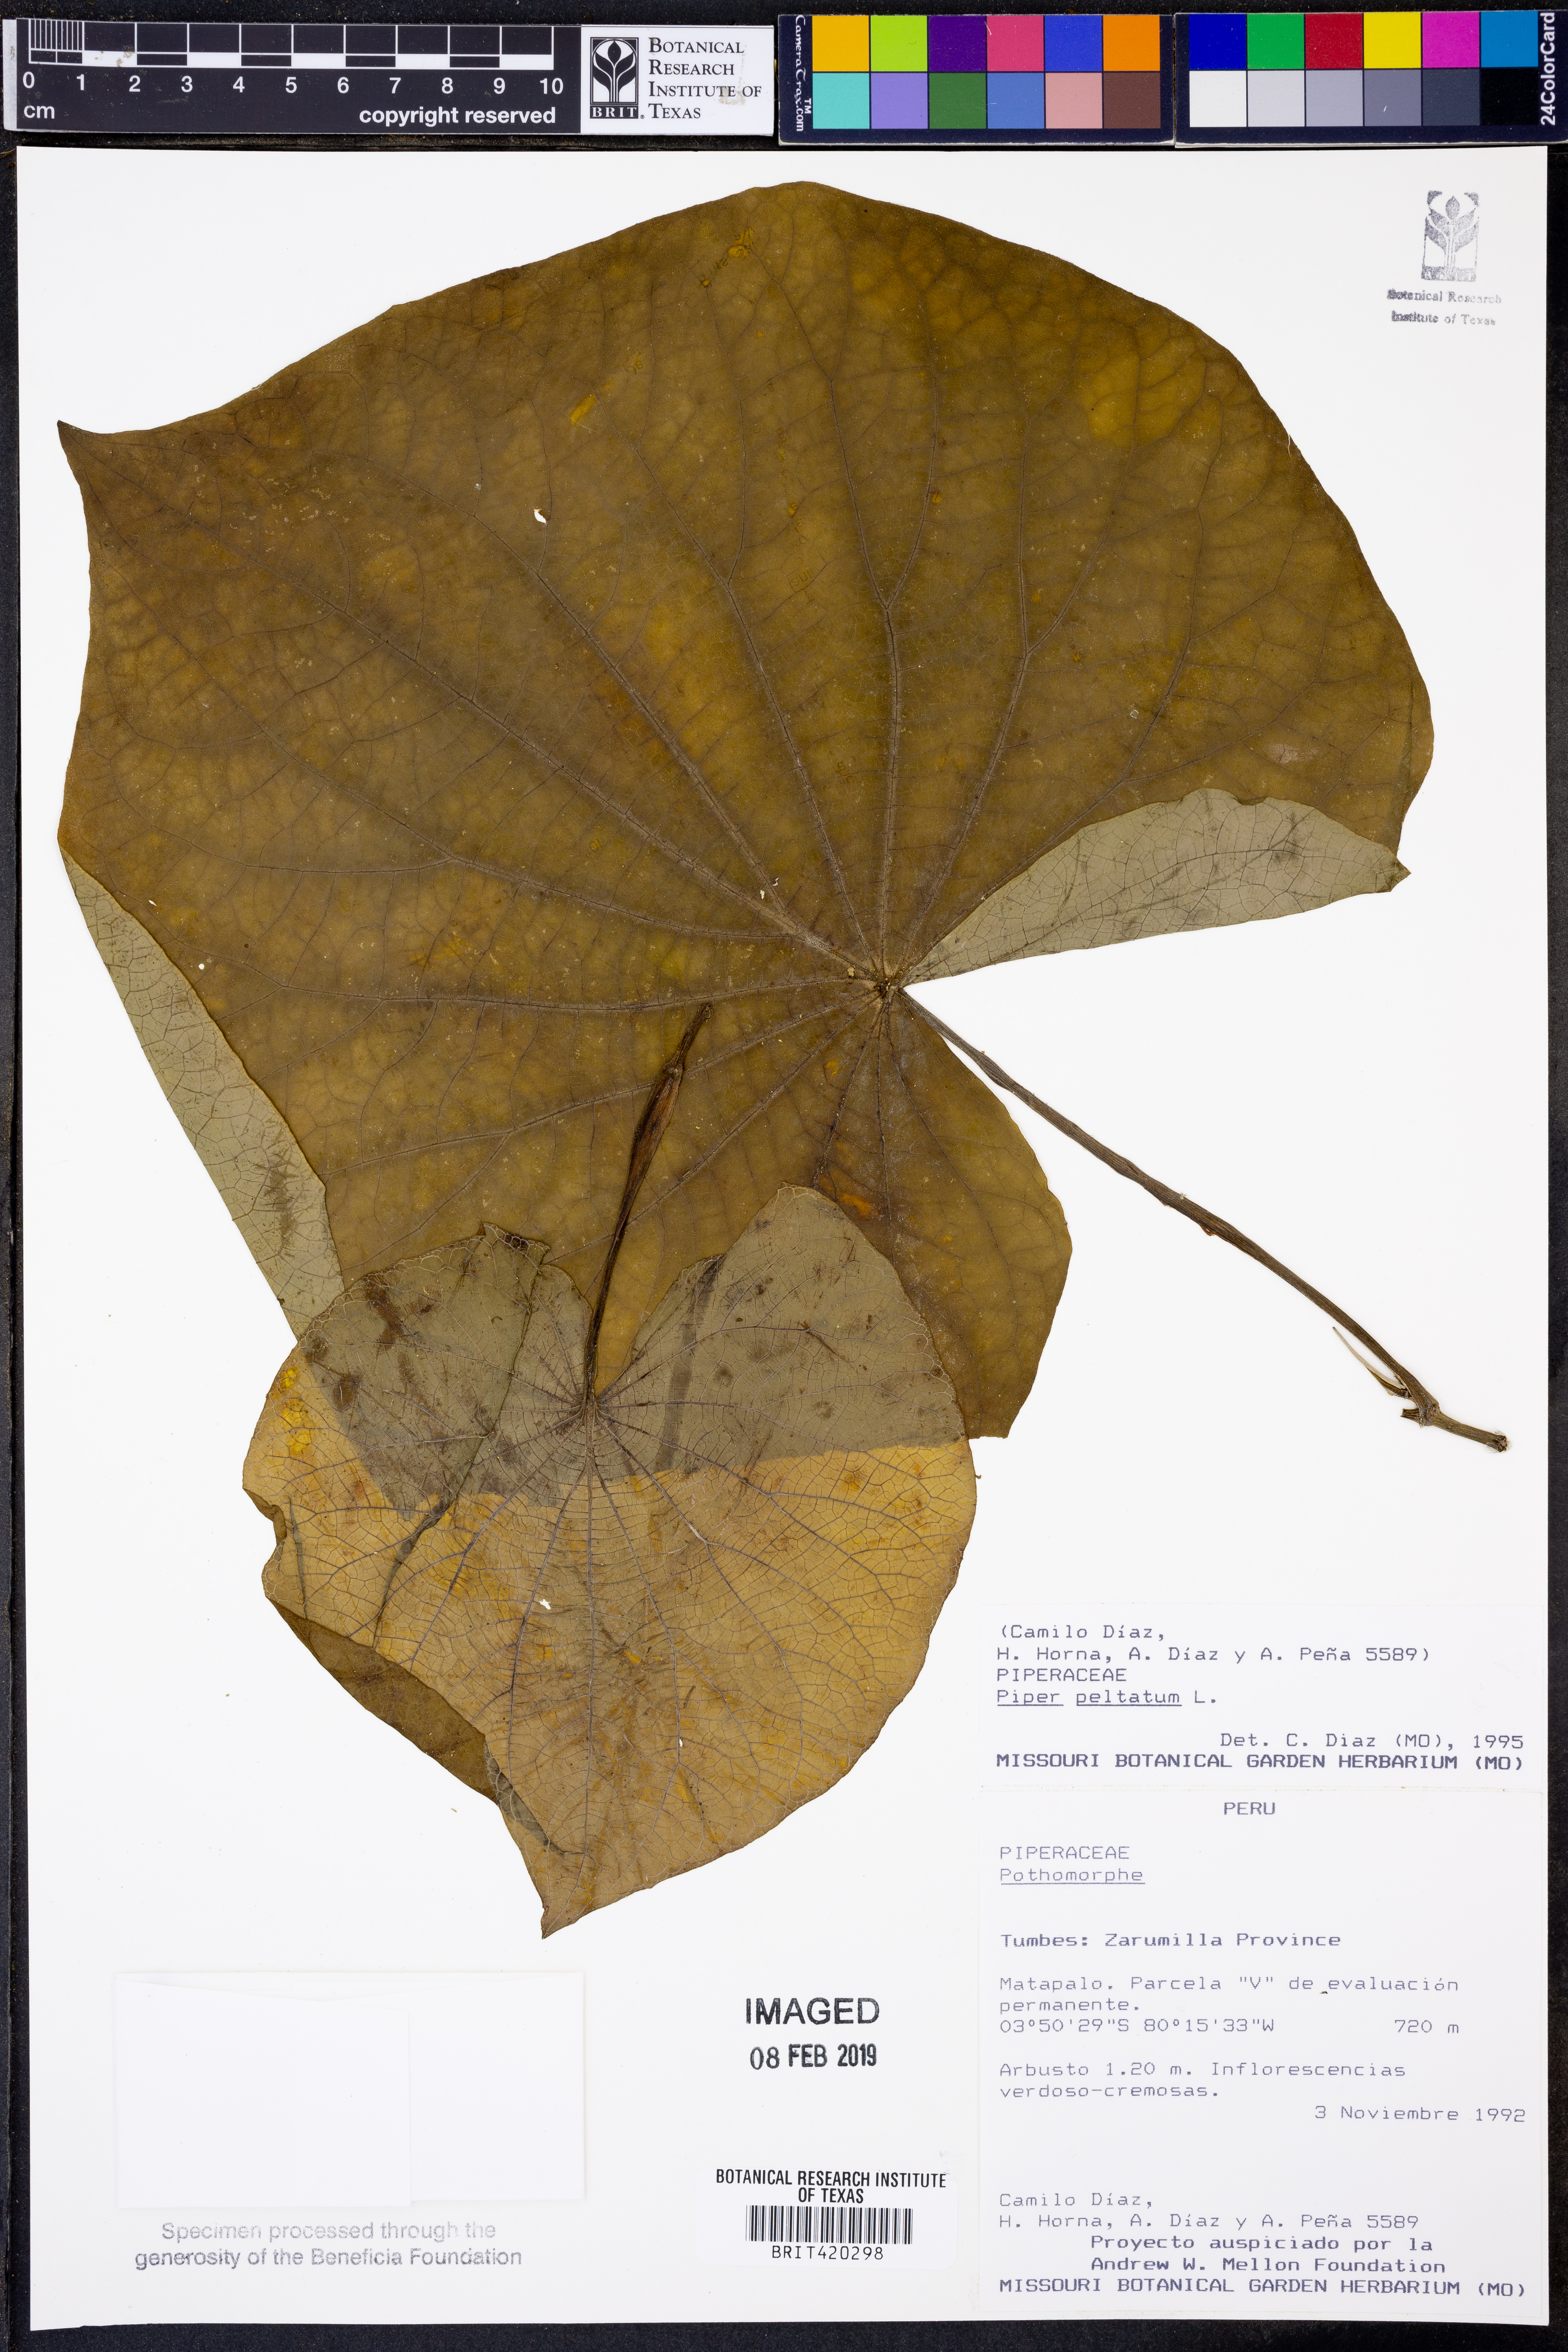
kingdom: Plantae
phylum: Tracheophyta
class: Magnoliopsida
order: Piperales
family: Piperaceae
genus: Piper
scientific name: Piper peltatum
